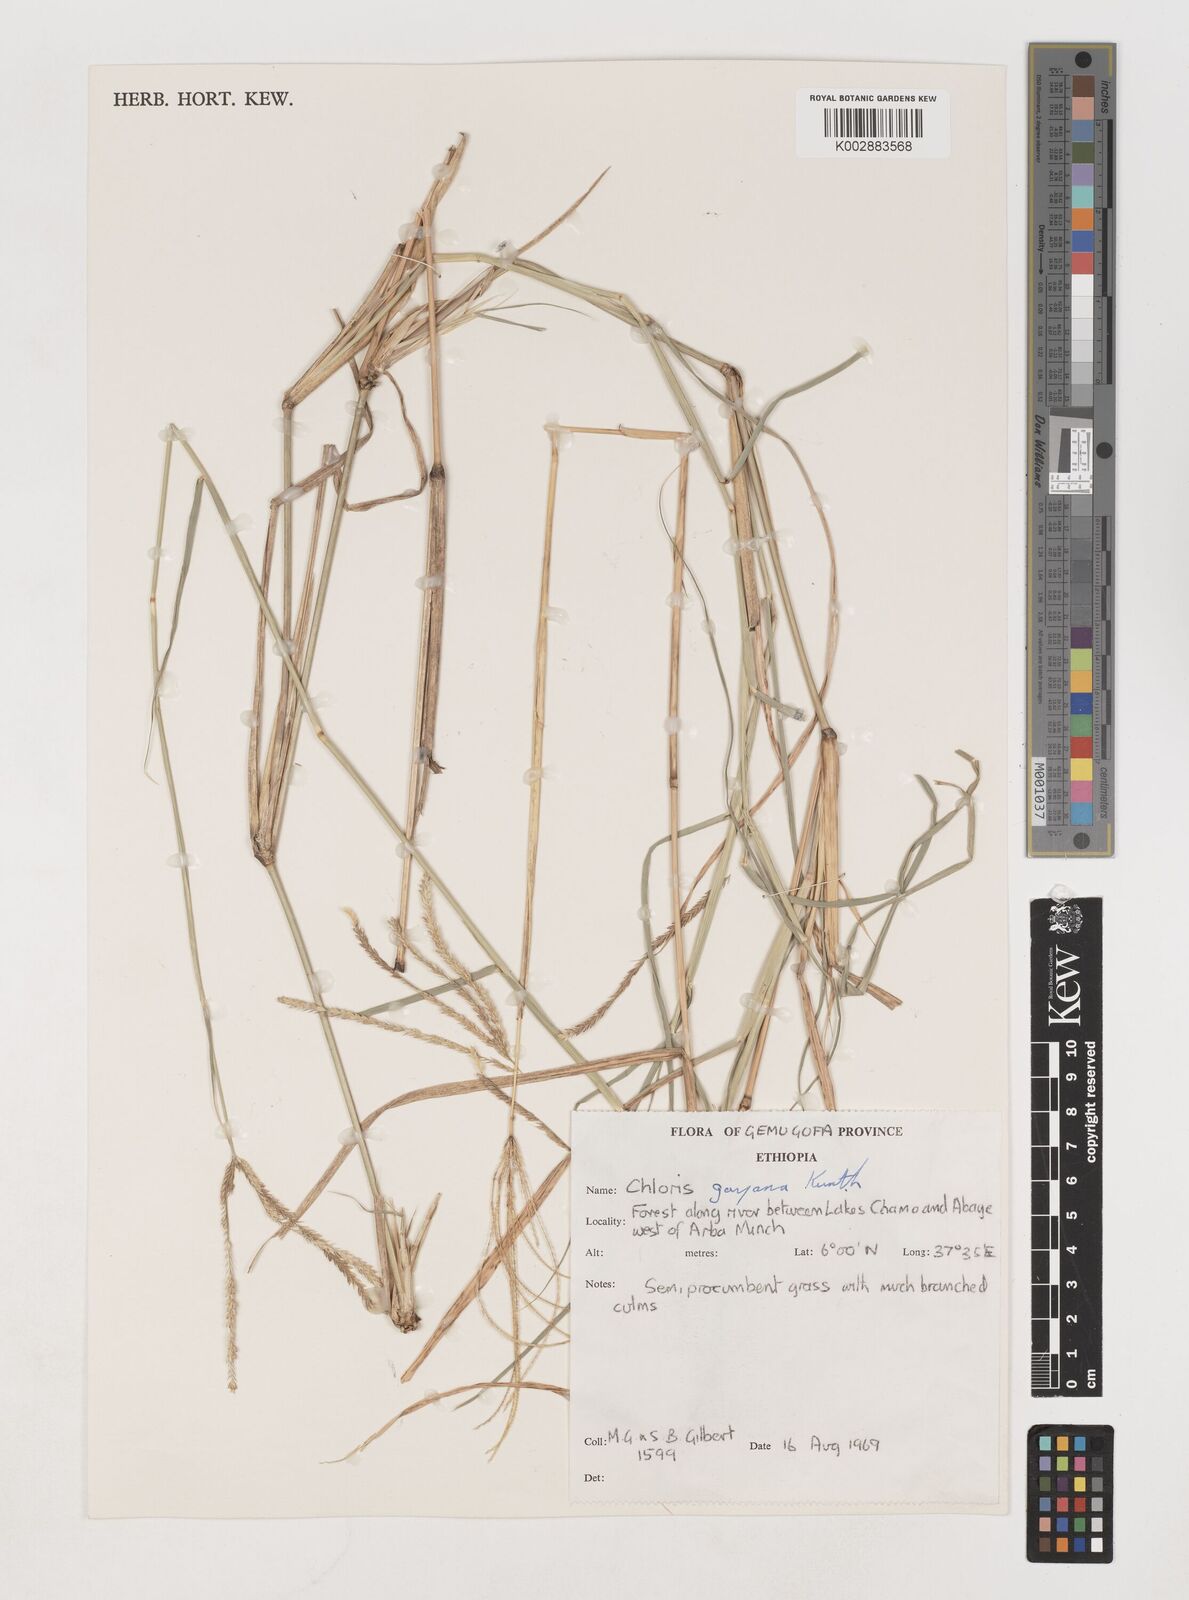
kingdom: Plantae
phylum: Tracheophyta
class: Liliopsida
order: Poales
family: Poaceae
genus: Chloris
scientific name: Chloris gayana
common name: Rhodes grass
